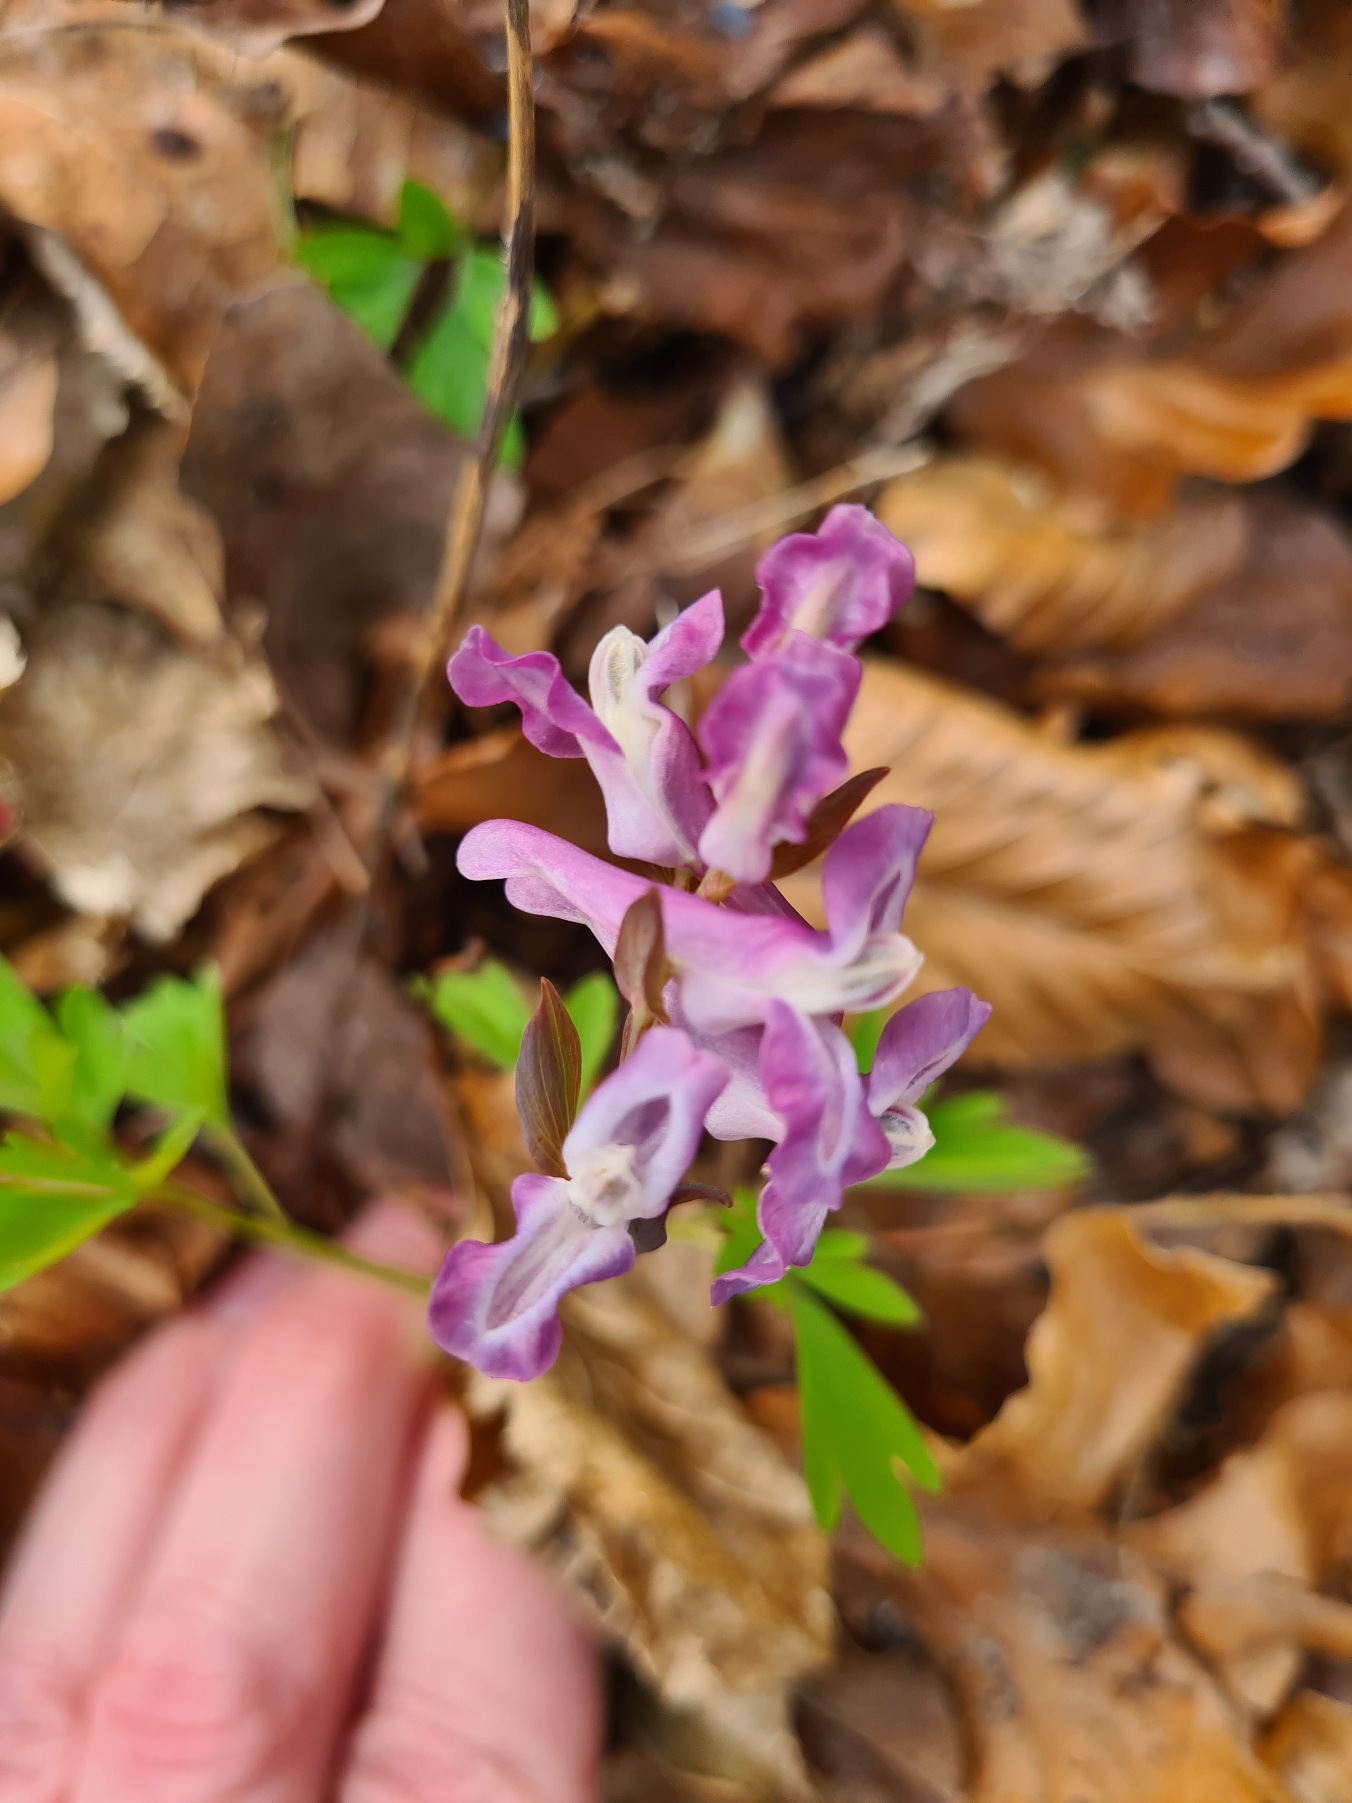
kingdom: Plantae
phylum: Tracheophyta
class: Magnoliopsida
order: Ranunculales
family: Papaveraceae
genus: Corydalis
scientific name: Corydalis cava
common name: Hulrodet lærkespore
